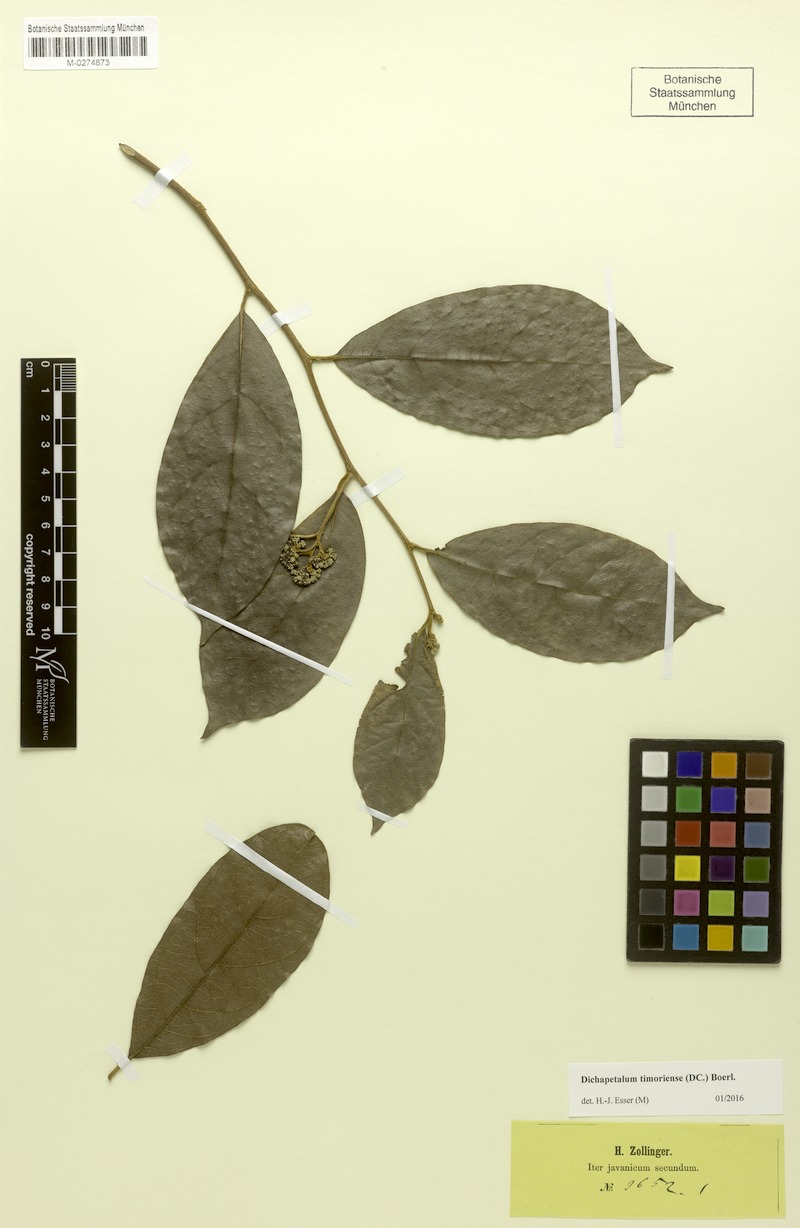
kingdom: Plantae
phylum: Tracheophyta
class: Magnoliopsida
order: Malpighiales
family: Dichapetalaceae
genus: Dichapetalum
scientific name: Dichapetalum timoriense
